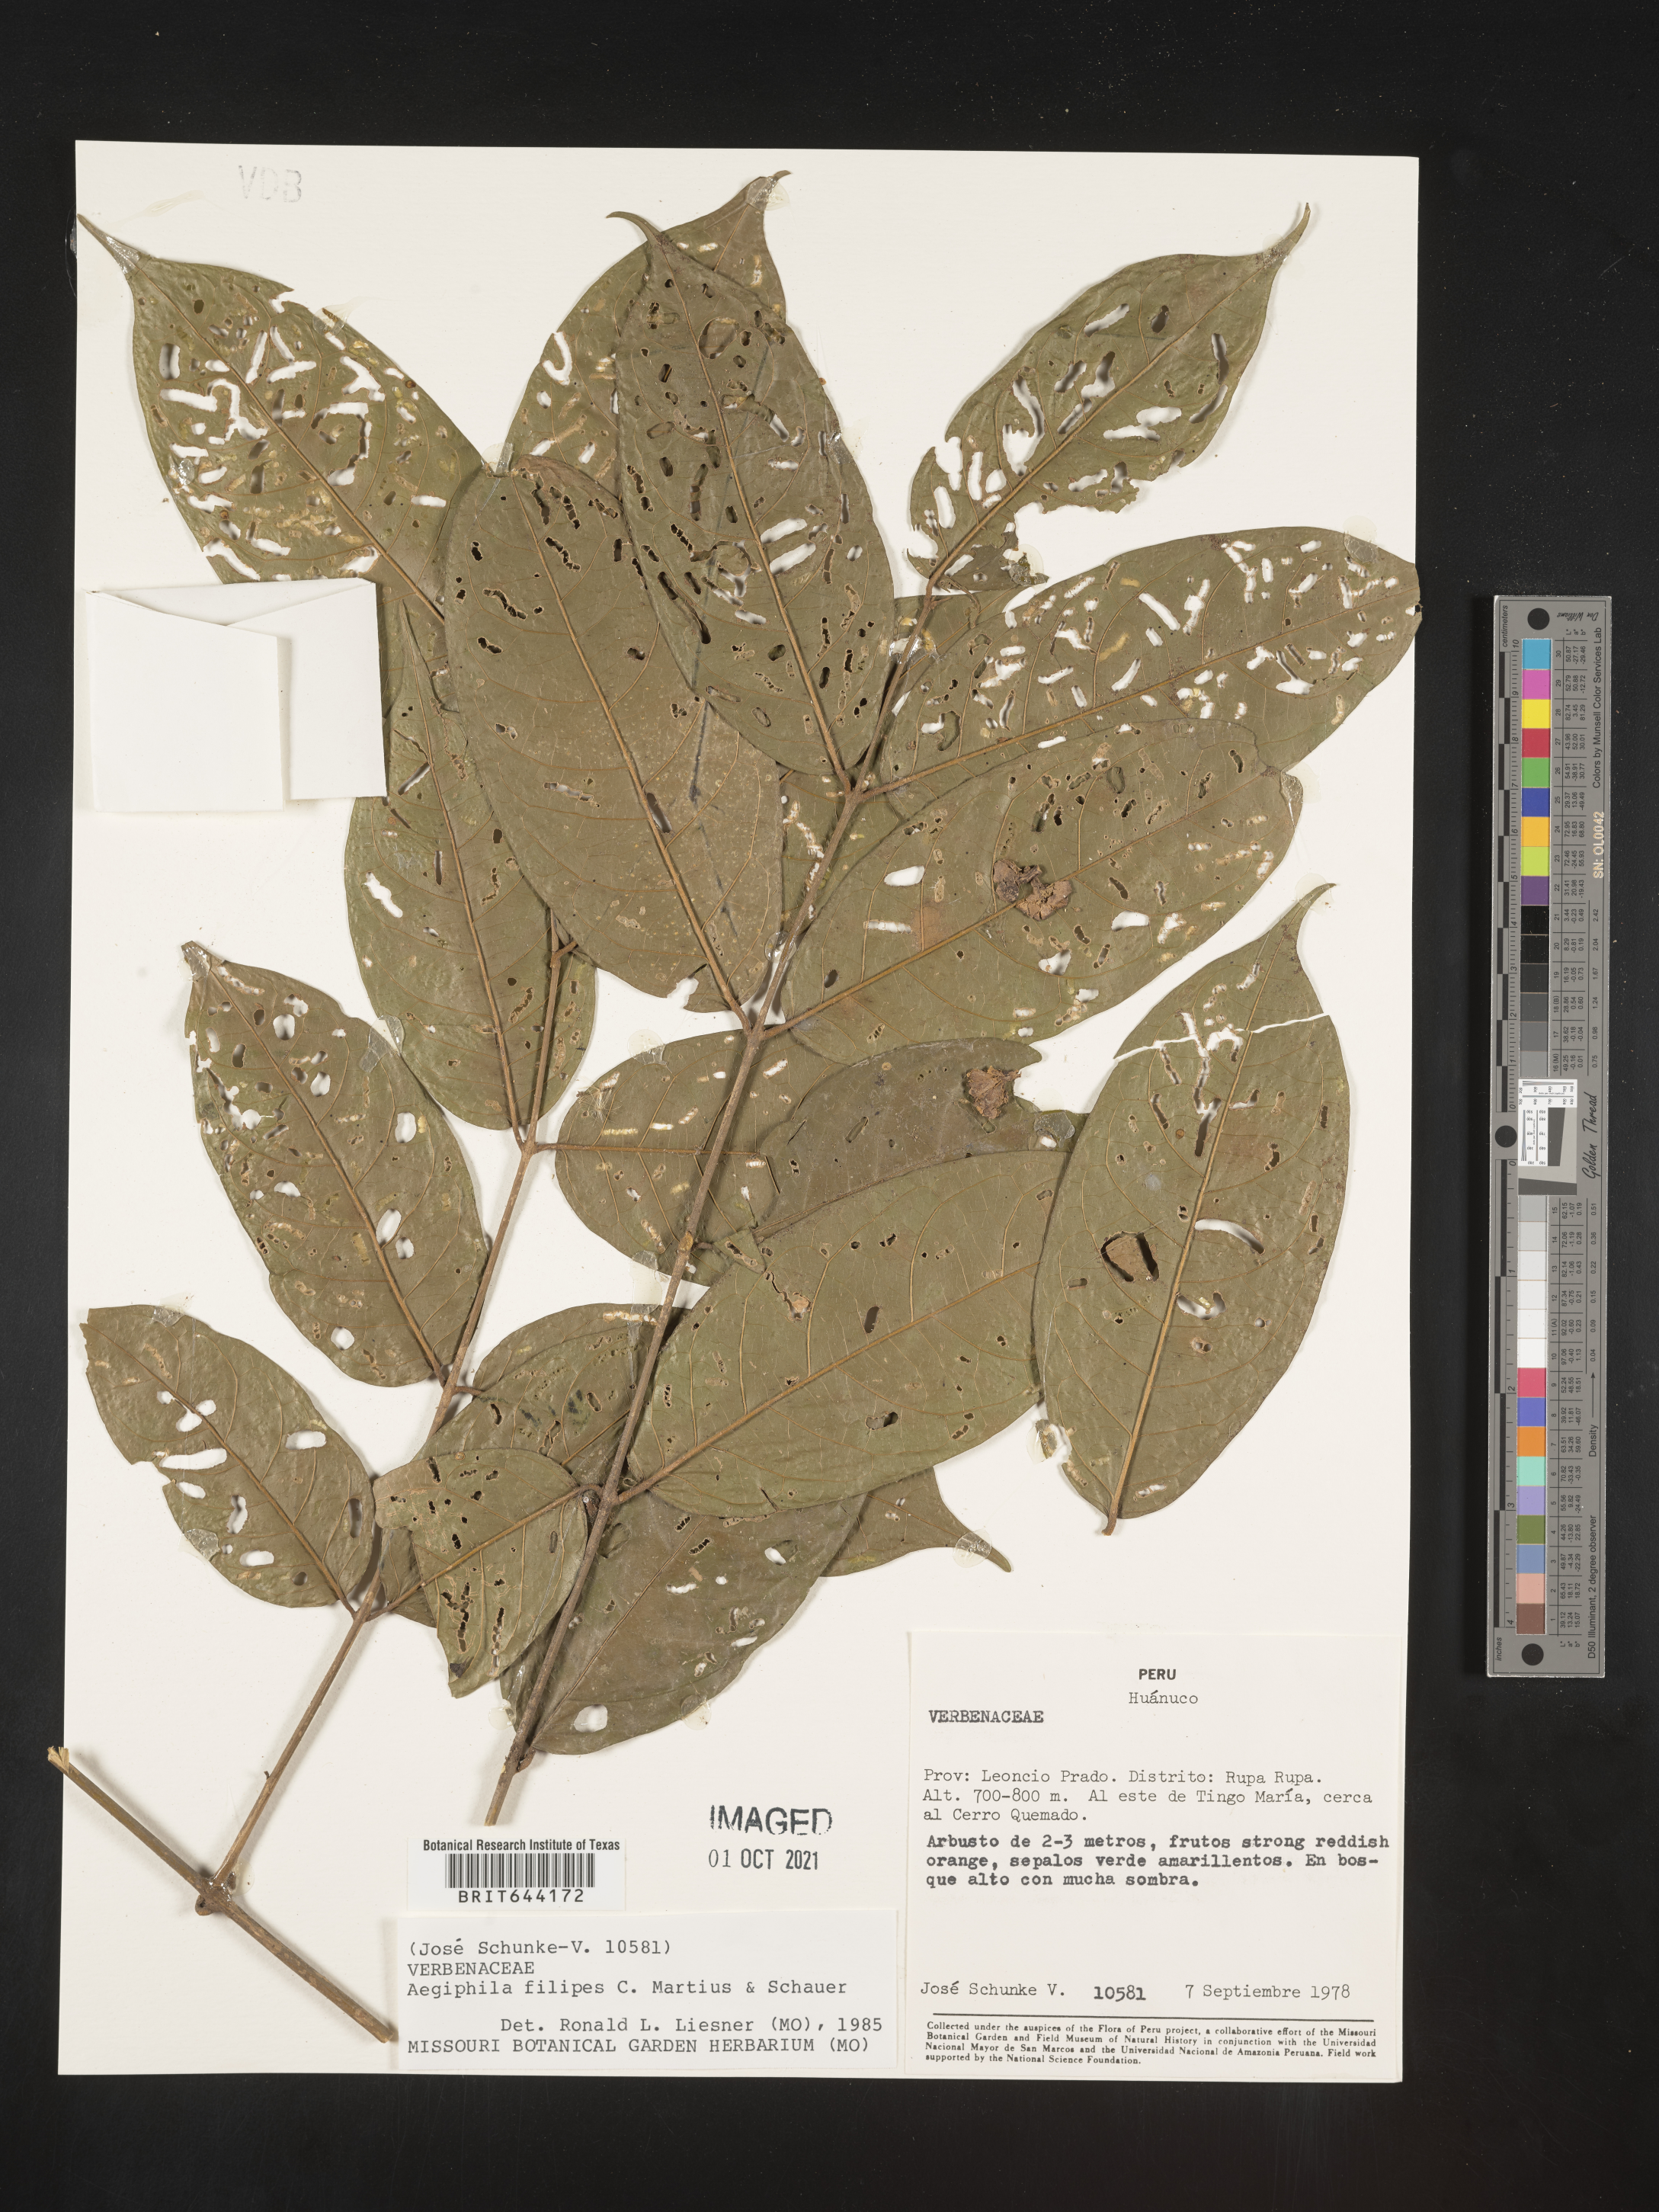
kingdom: Plantae
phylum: Tracheophyta
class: Magnoliopsida
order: Lamiales
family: Lamiaceae
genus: Aegiphila
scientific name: Aegiphila
